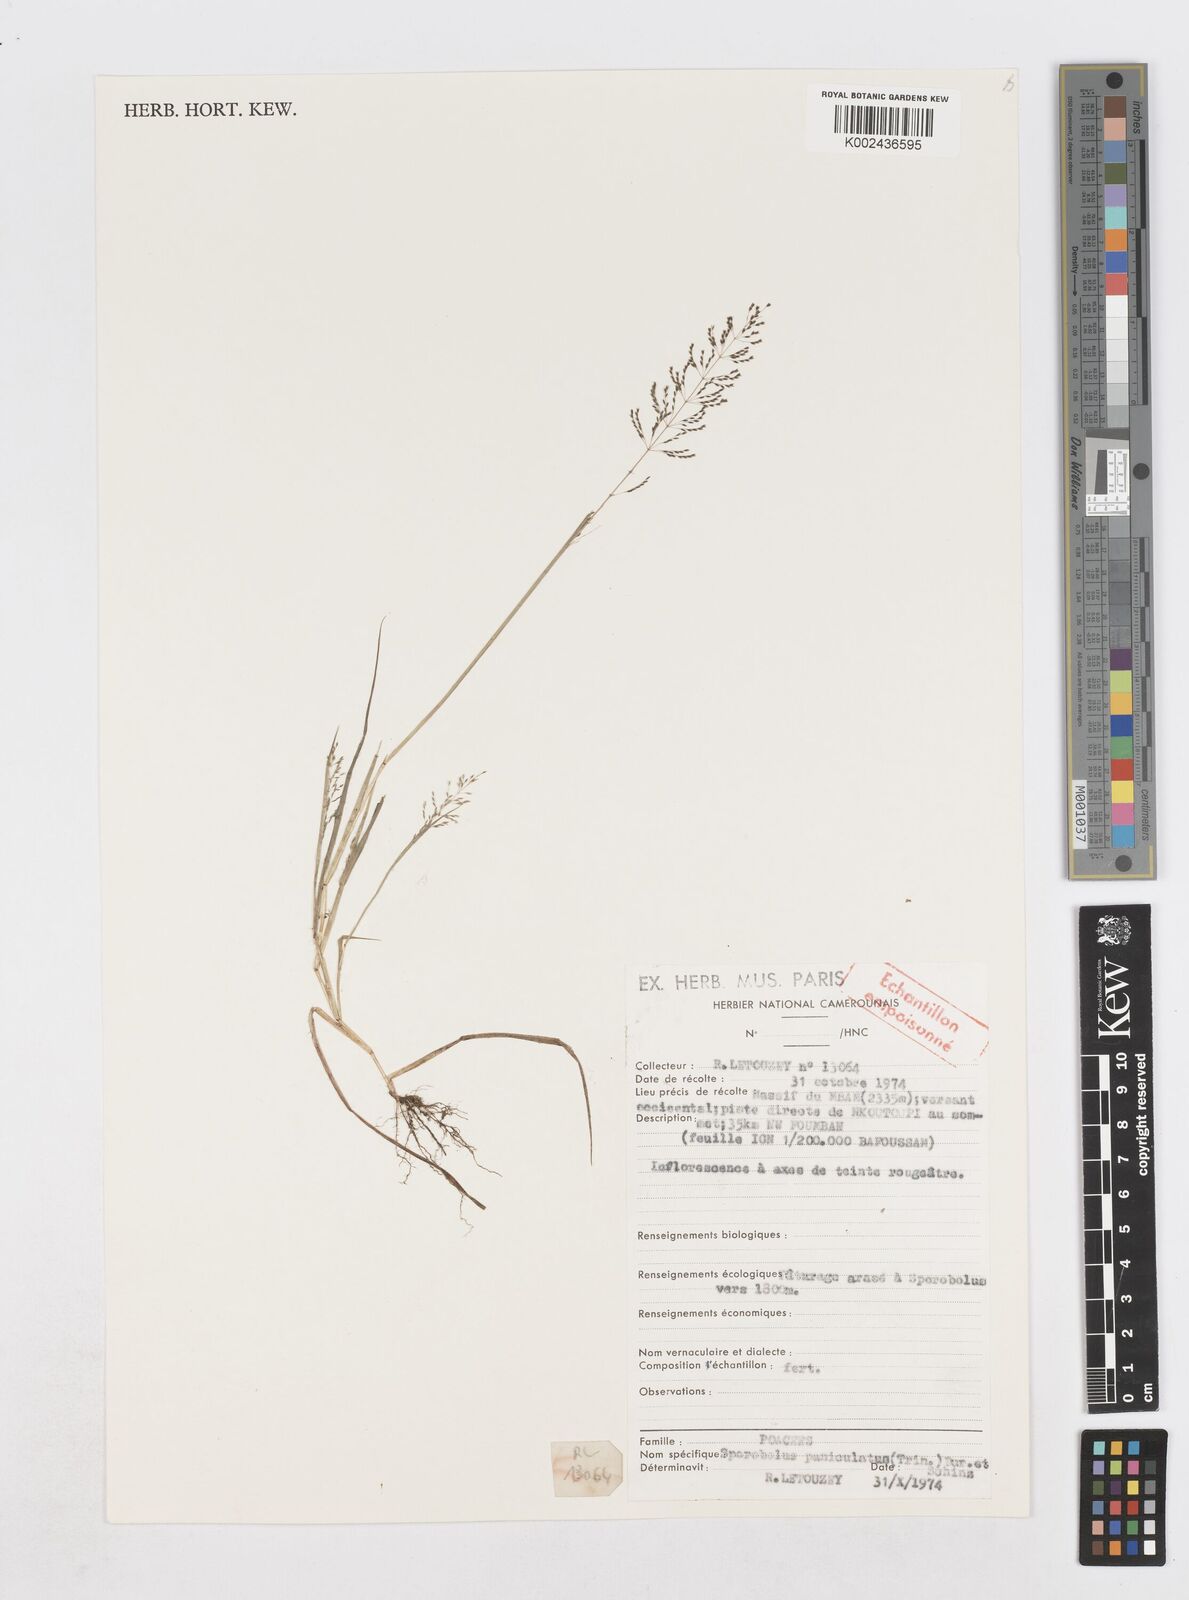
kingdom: Plantae
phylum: Tracheophyta
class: Liliopsida
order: Poales
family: Poaceae
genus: Sporobolus
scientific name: Sporobolus paniculatus
